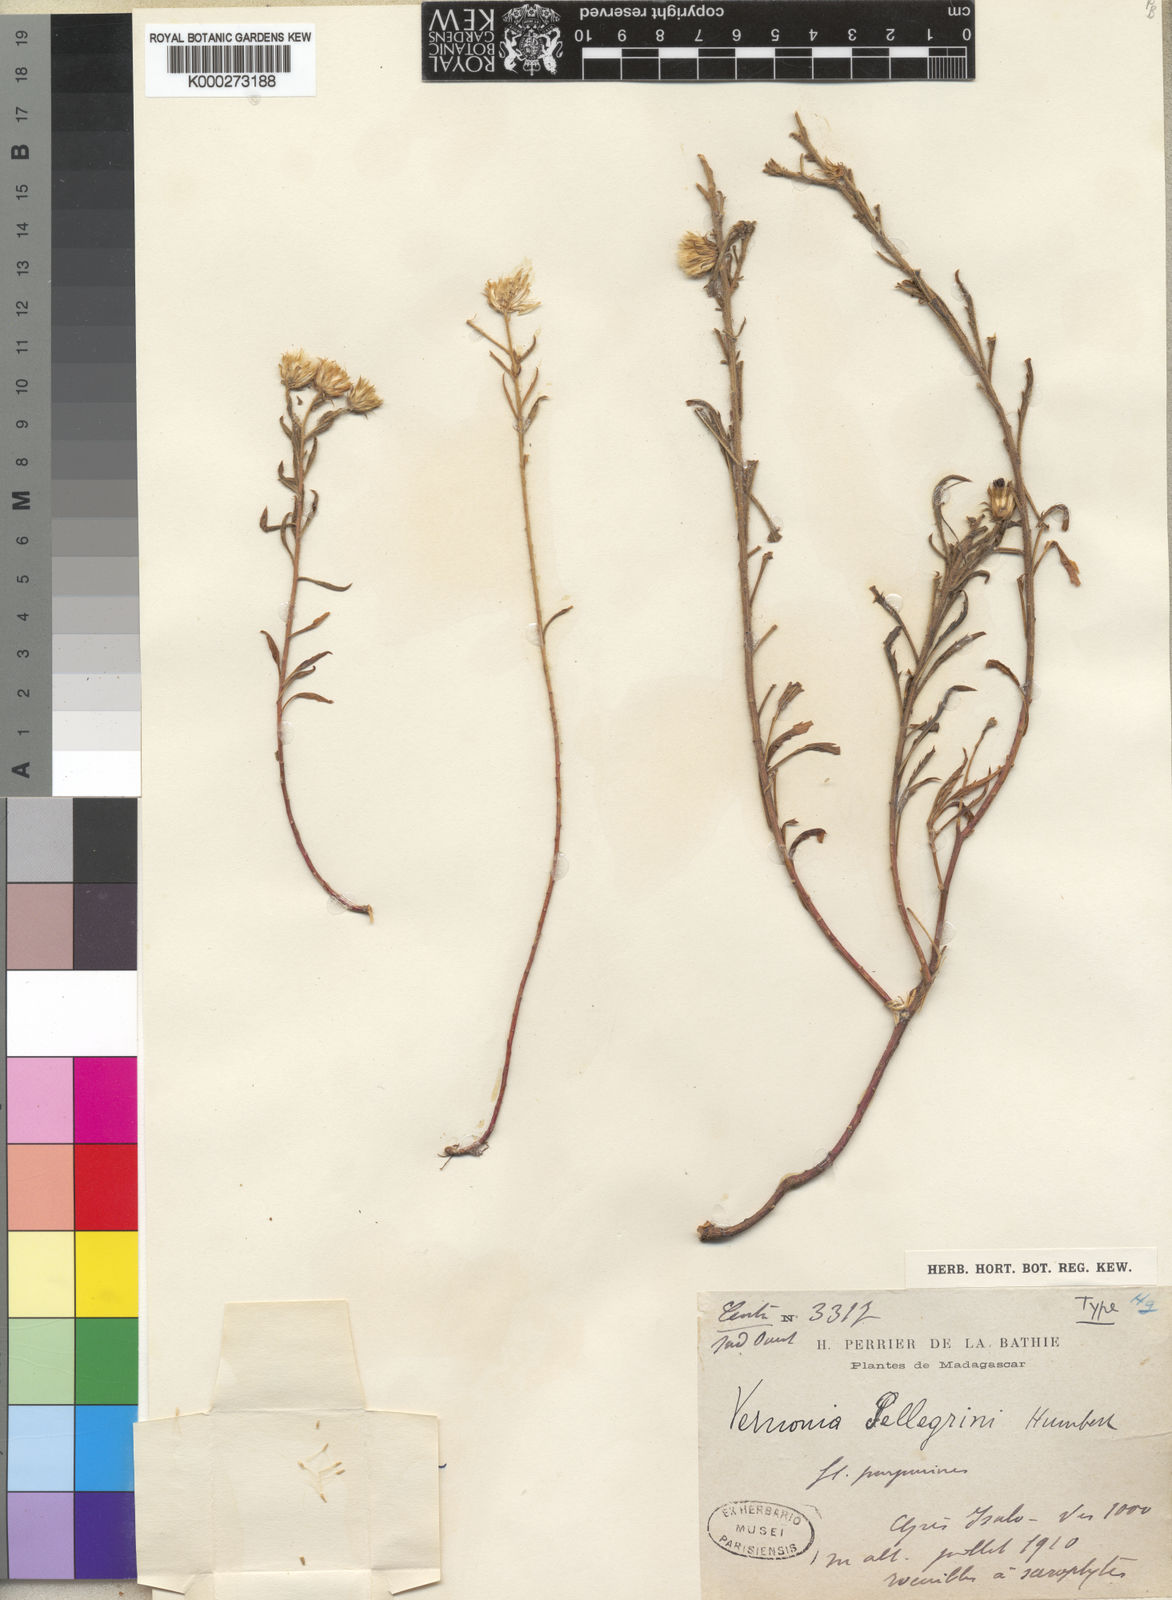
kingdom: Plantae
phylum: Tracheophyta
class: Magnoliopsida
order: Asterales
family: Asteraceae
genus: Vernonia
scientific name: Vernonia
